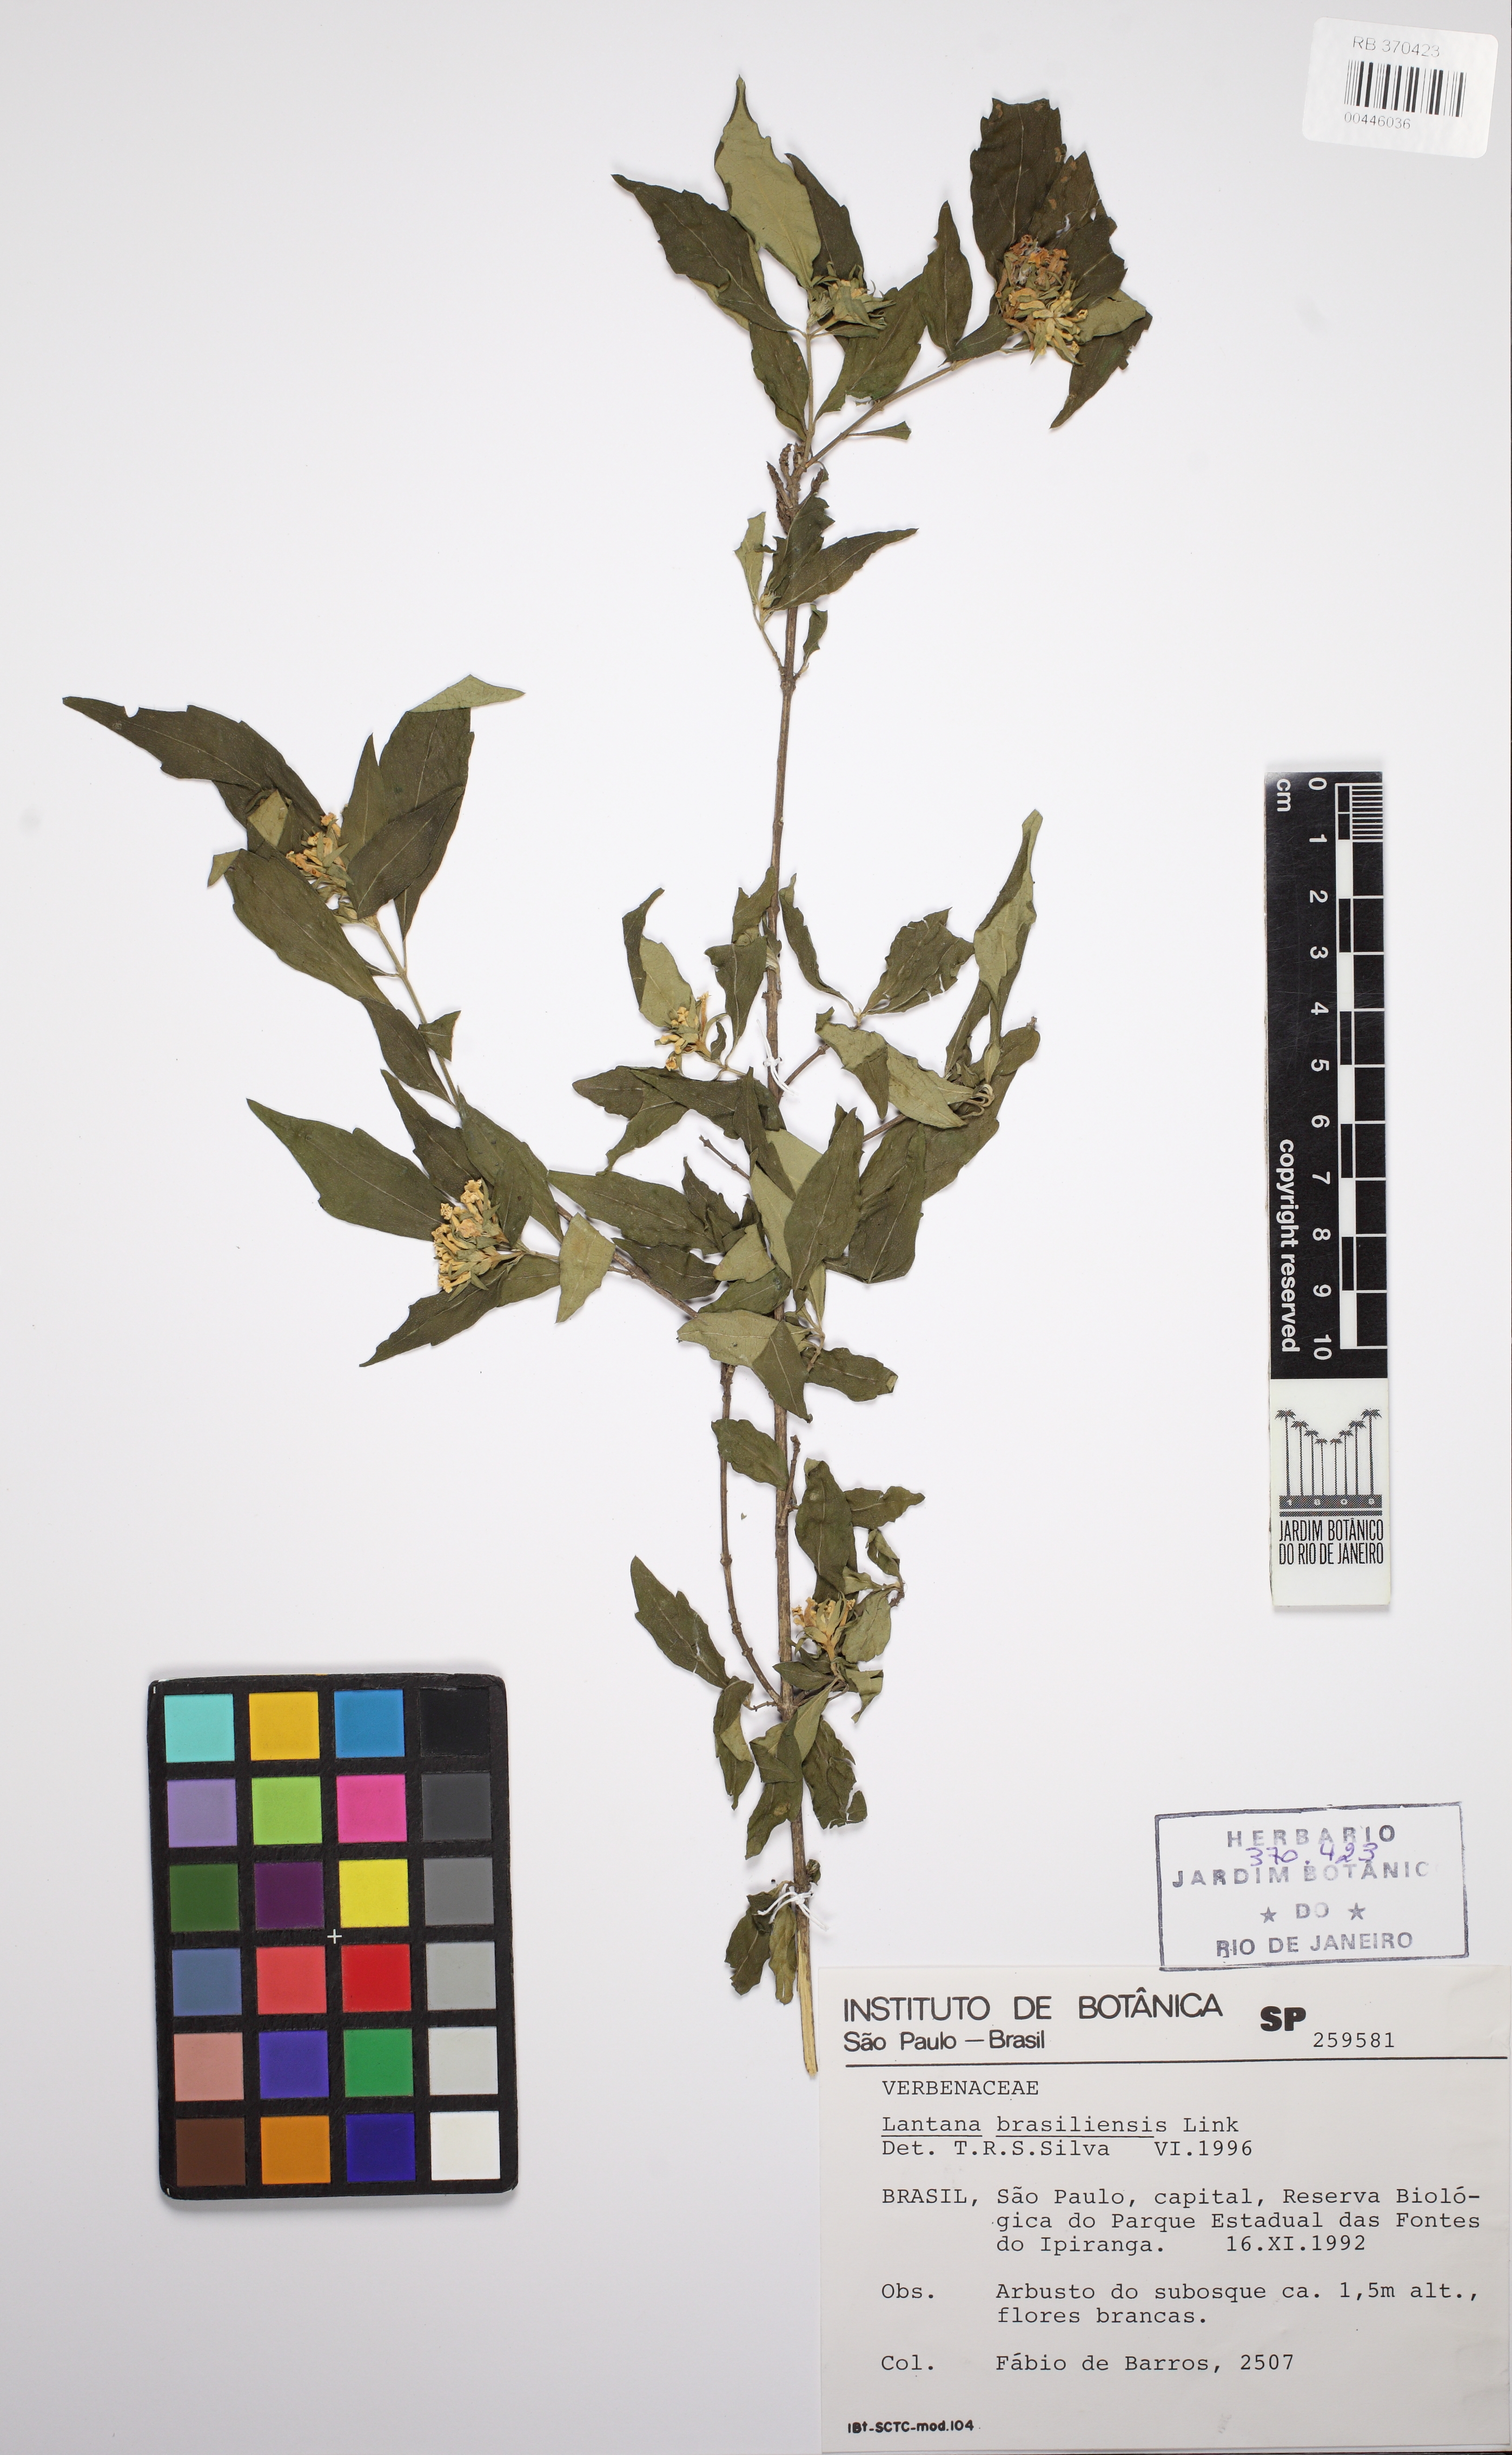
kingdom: Plantae
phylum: Tracheophyta
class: Magnoliopsida
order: Lamiales
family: Verbenaceae
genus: Lippia
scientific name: Lippia brasiliensis
